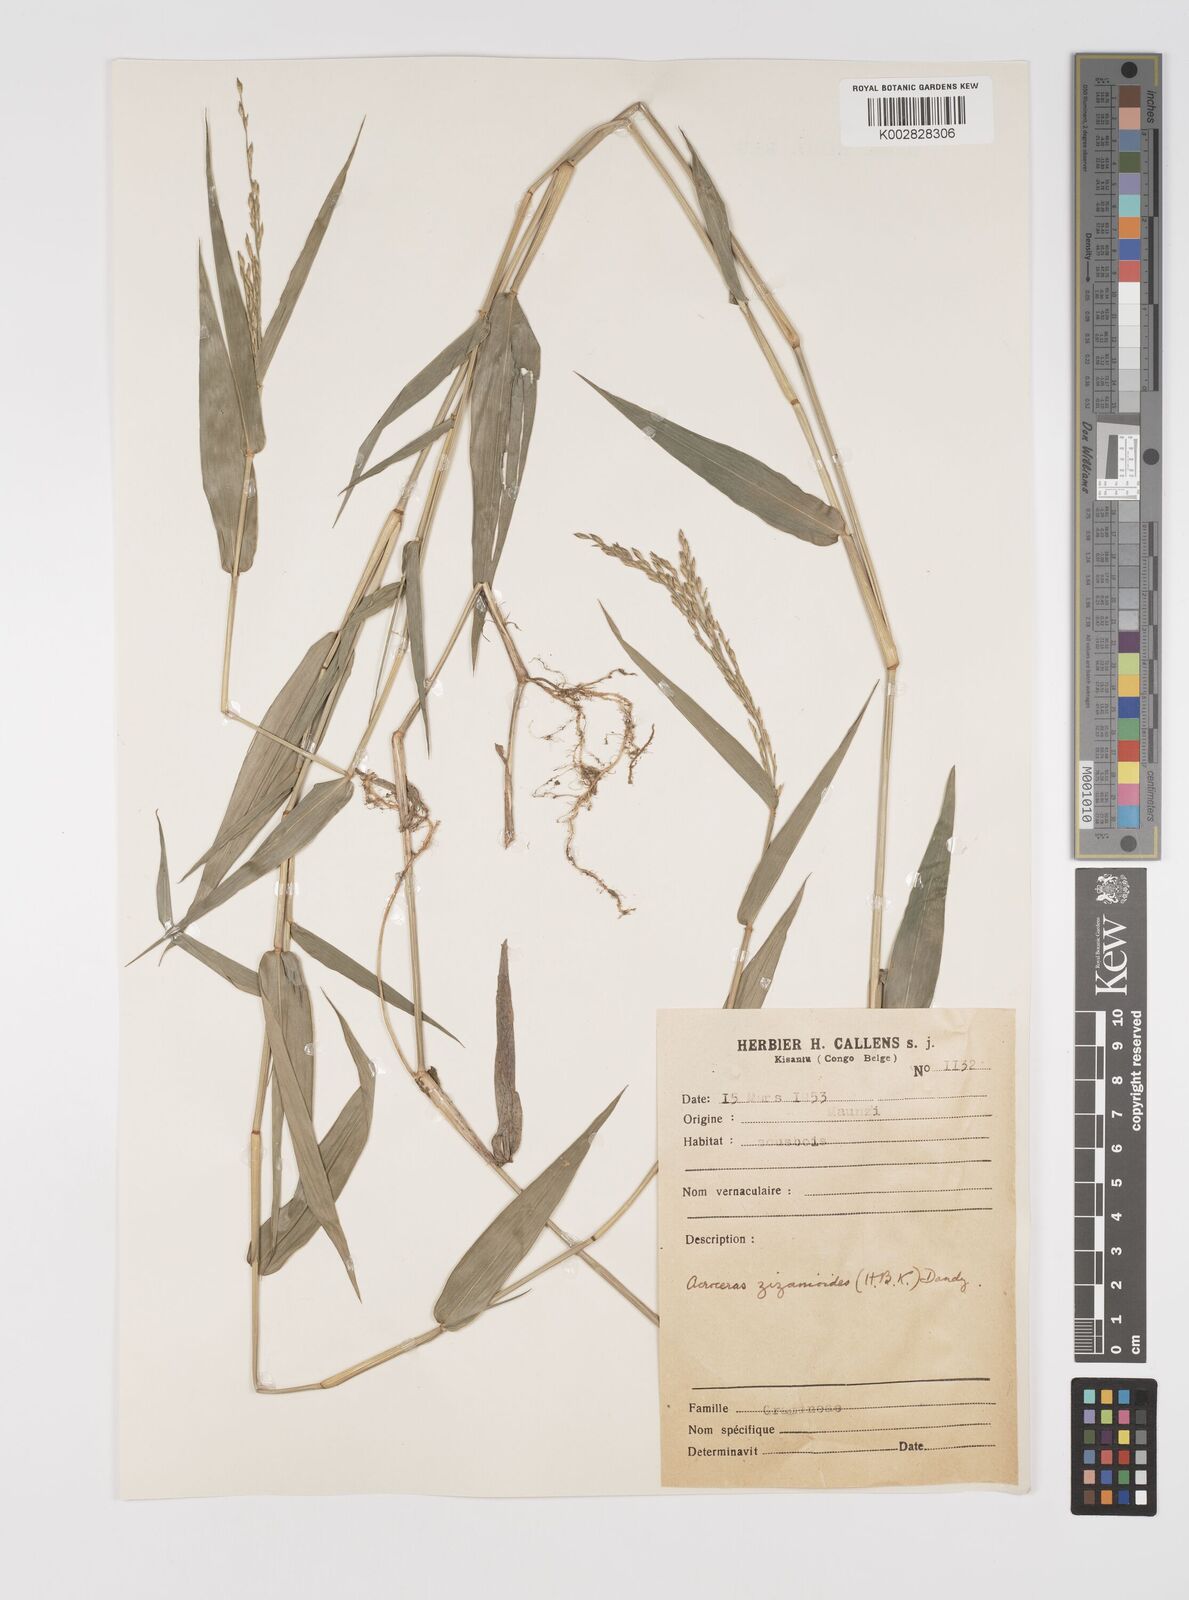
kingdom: Plantae
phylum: Tracheophyta
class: Liliopsida
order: Poales
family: Poaceae
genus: Acroceras
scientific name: Acroceras zizanioides
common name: Oat grass
